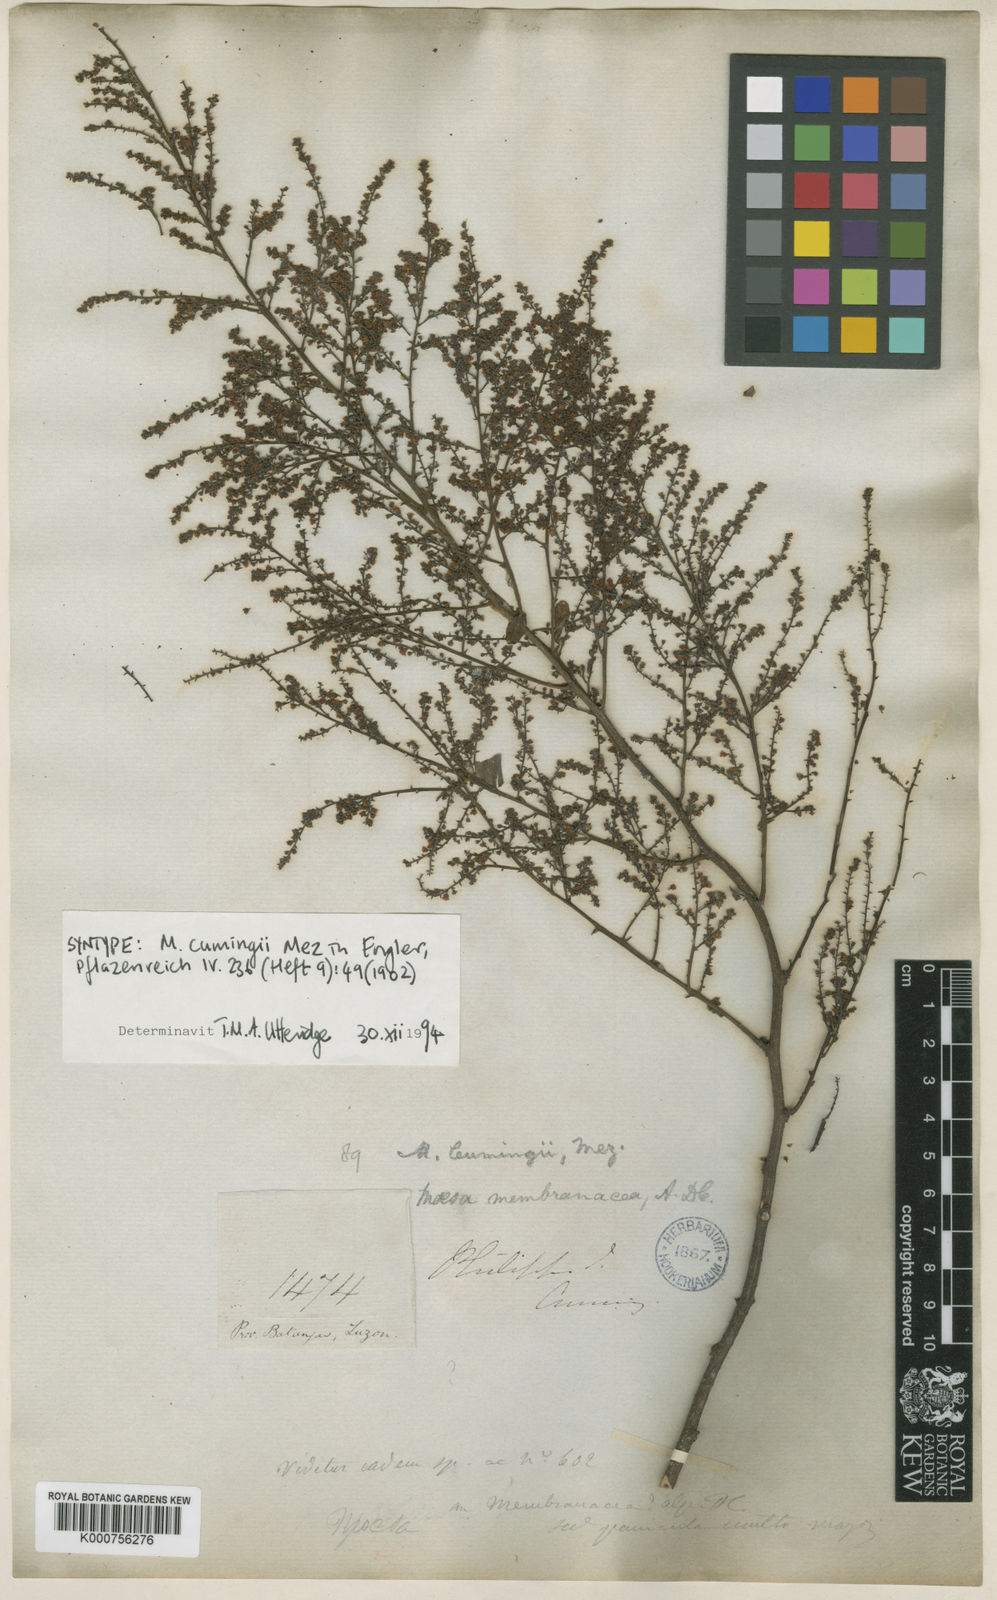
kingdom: Plantae
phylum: Tracheophyta
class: Magnoliopsida
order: Ericales
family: Primulaceae
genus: Maesa
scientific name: Maesa cumingii
